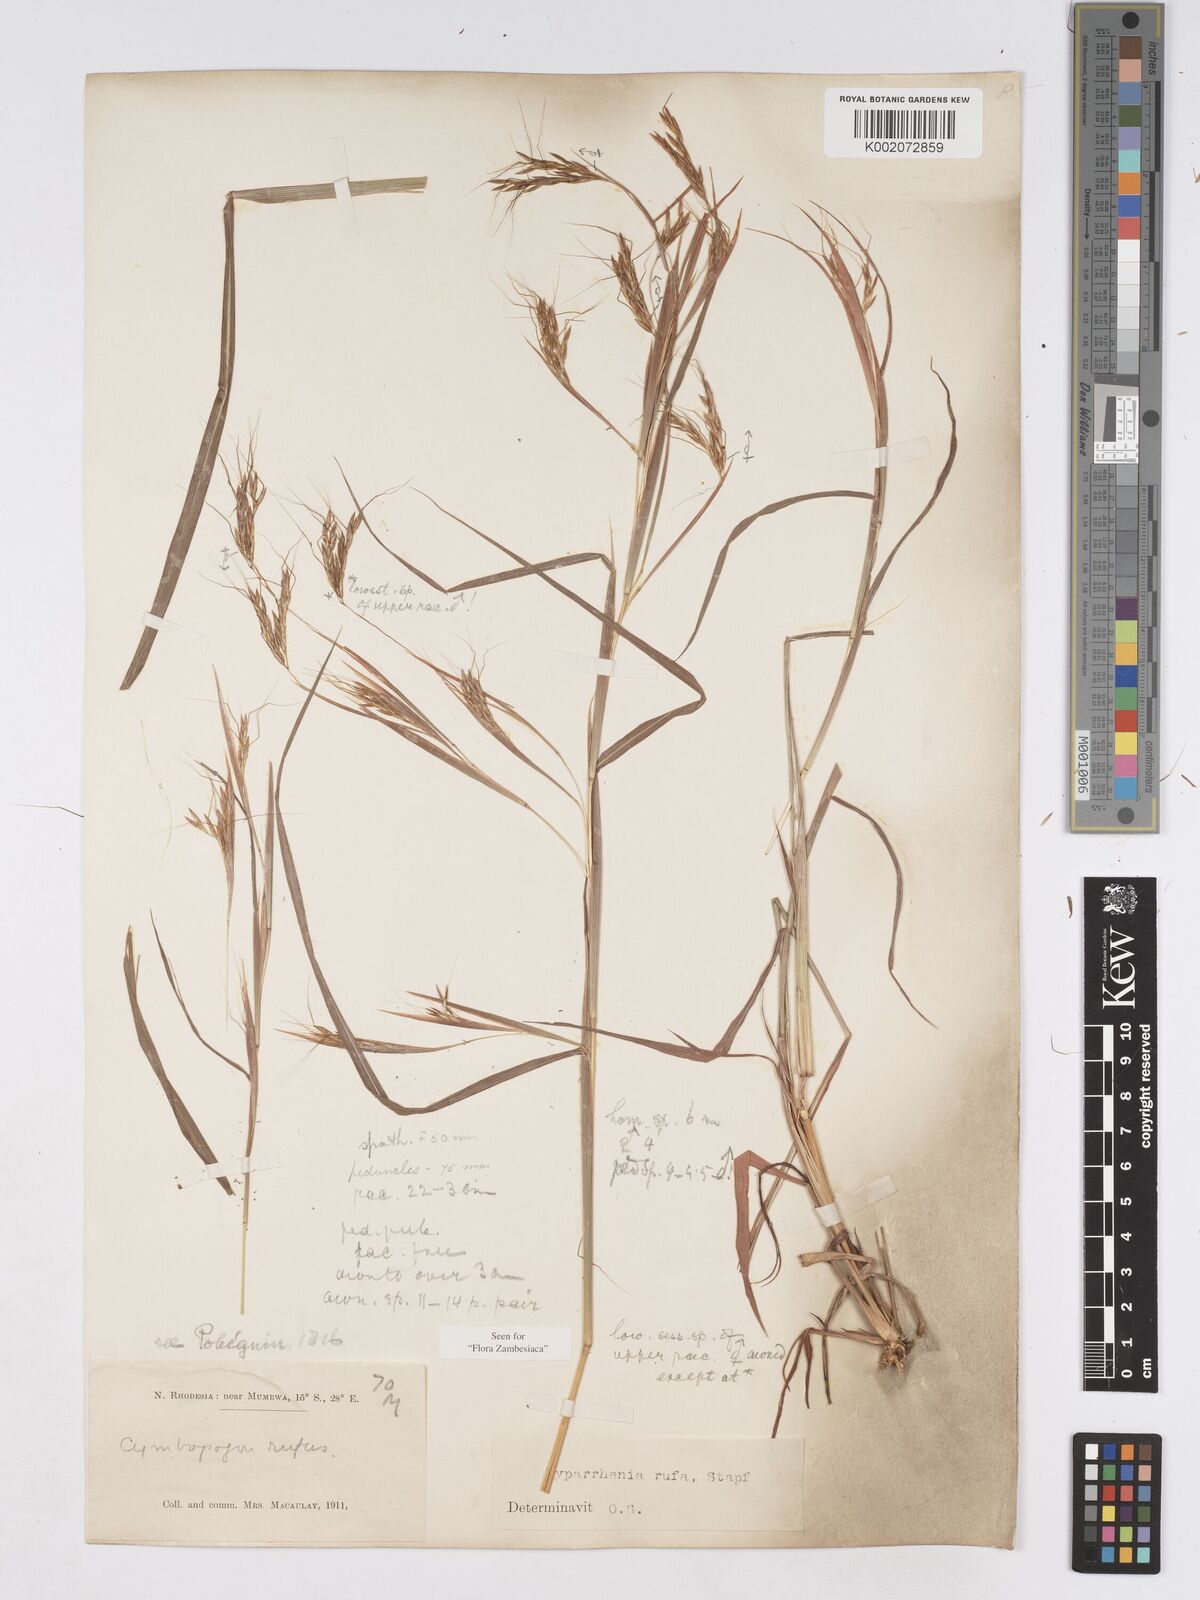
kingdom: Plantae
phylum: Tracheophyta
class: Liliopsida
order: Poales
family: Poaceae
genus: Hyparrhenia
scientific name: Hyparrhenia rufa
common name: Jaraguagrass
